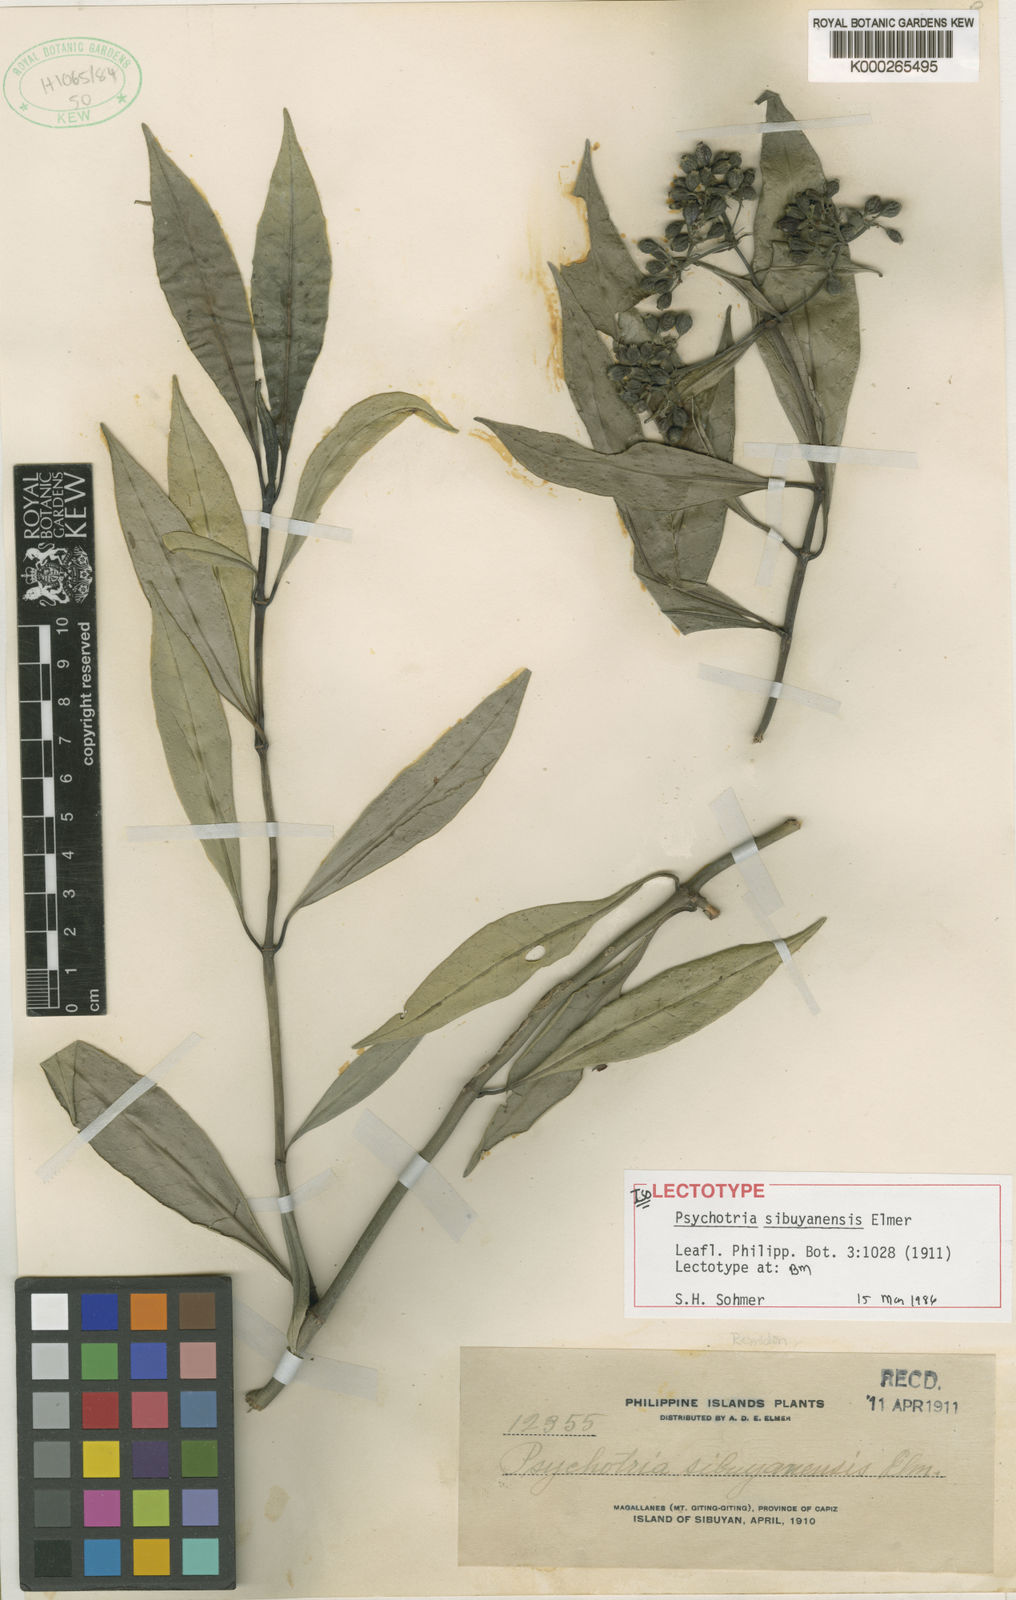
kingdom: Plantae
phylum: Tracheophyta
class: Magnoliopsida
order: Gentianales
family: Rubiaceae
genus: Psychotria
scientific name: Psychotria sibuyanensis
